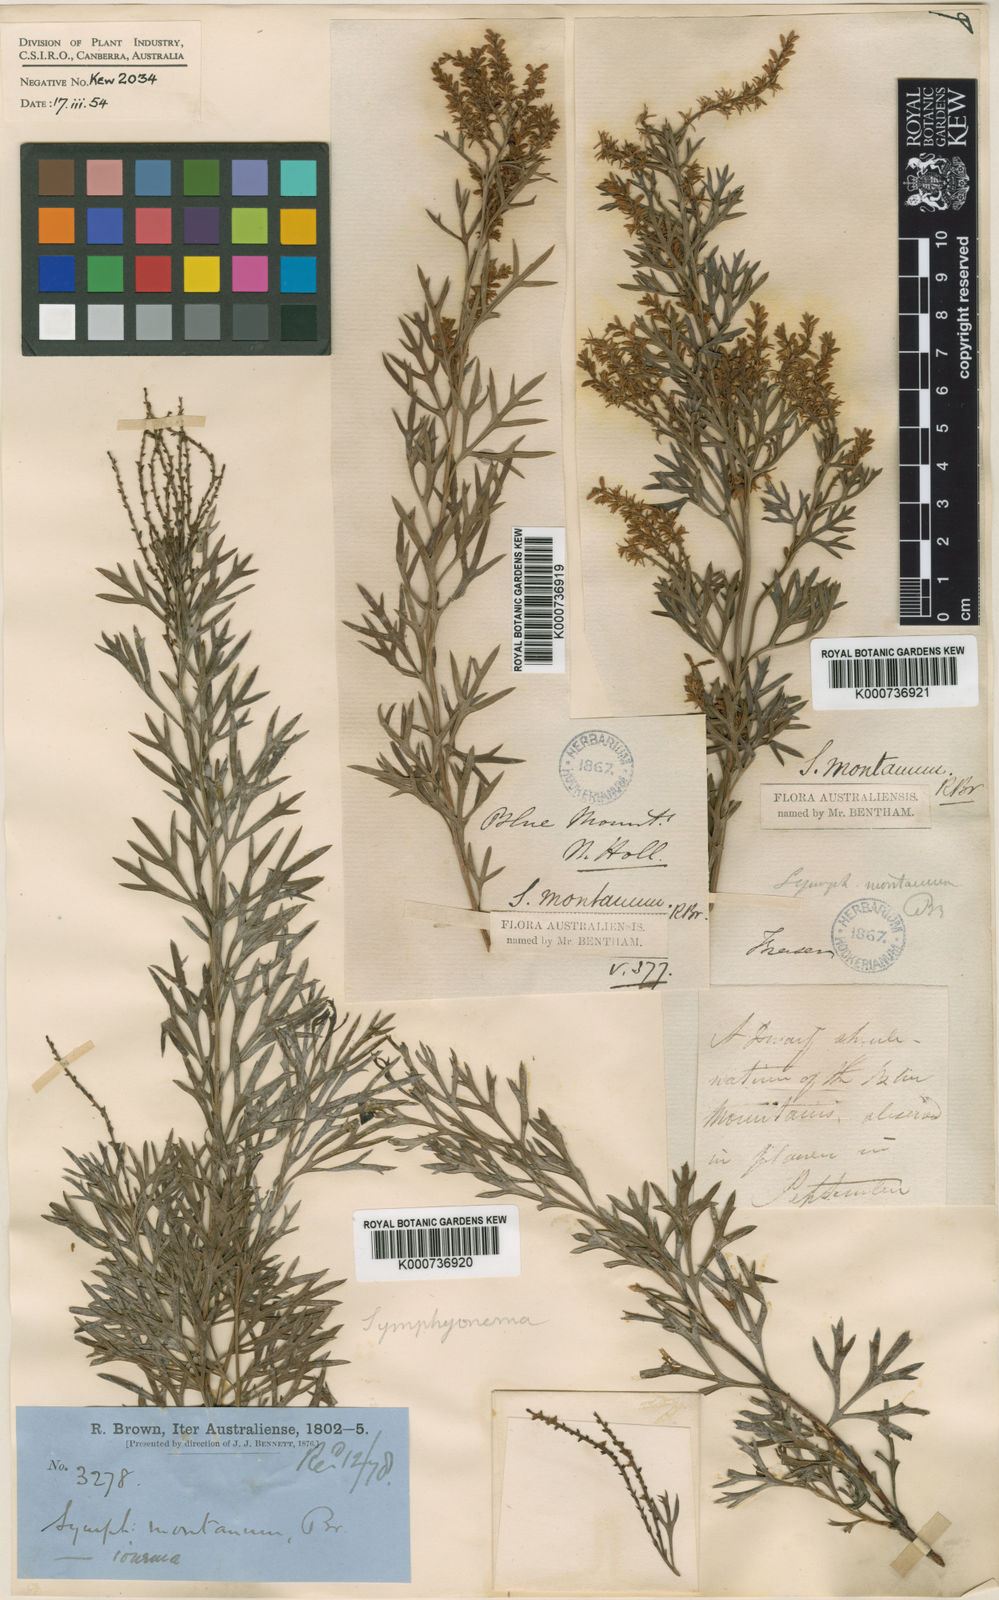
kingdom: Plantae
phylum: Tracheophyta
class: Magnoliopsida
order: Proteales
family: Proteaceae
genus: Symphionema
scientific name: Symphionema montanum
